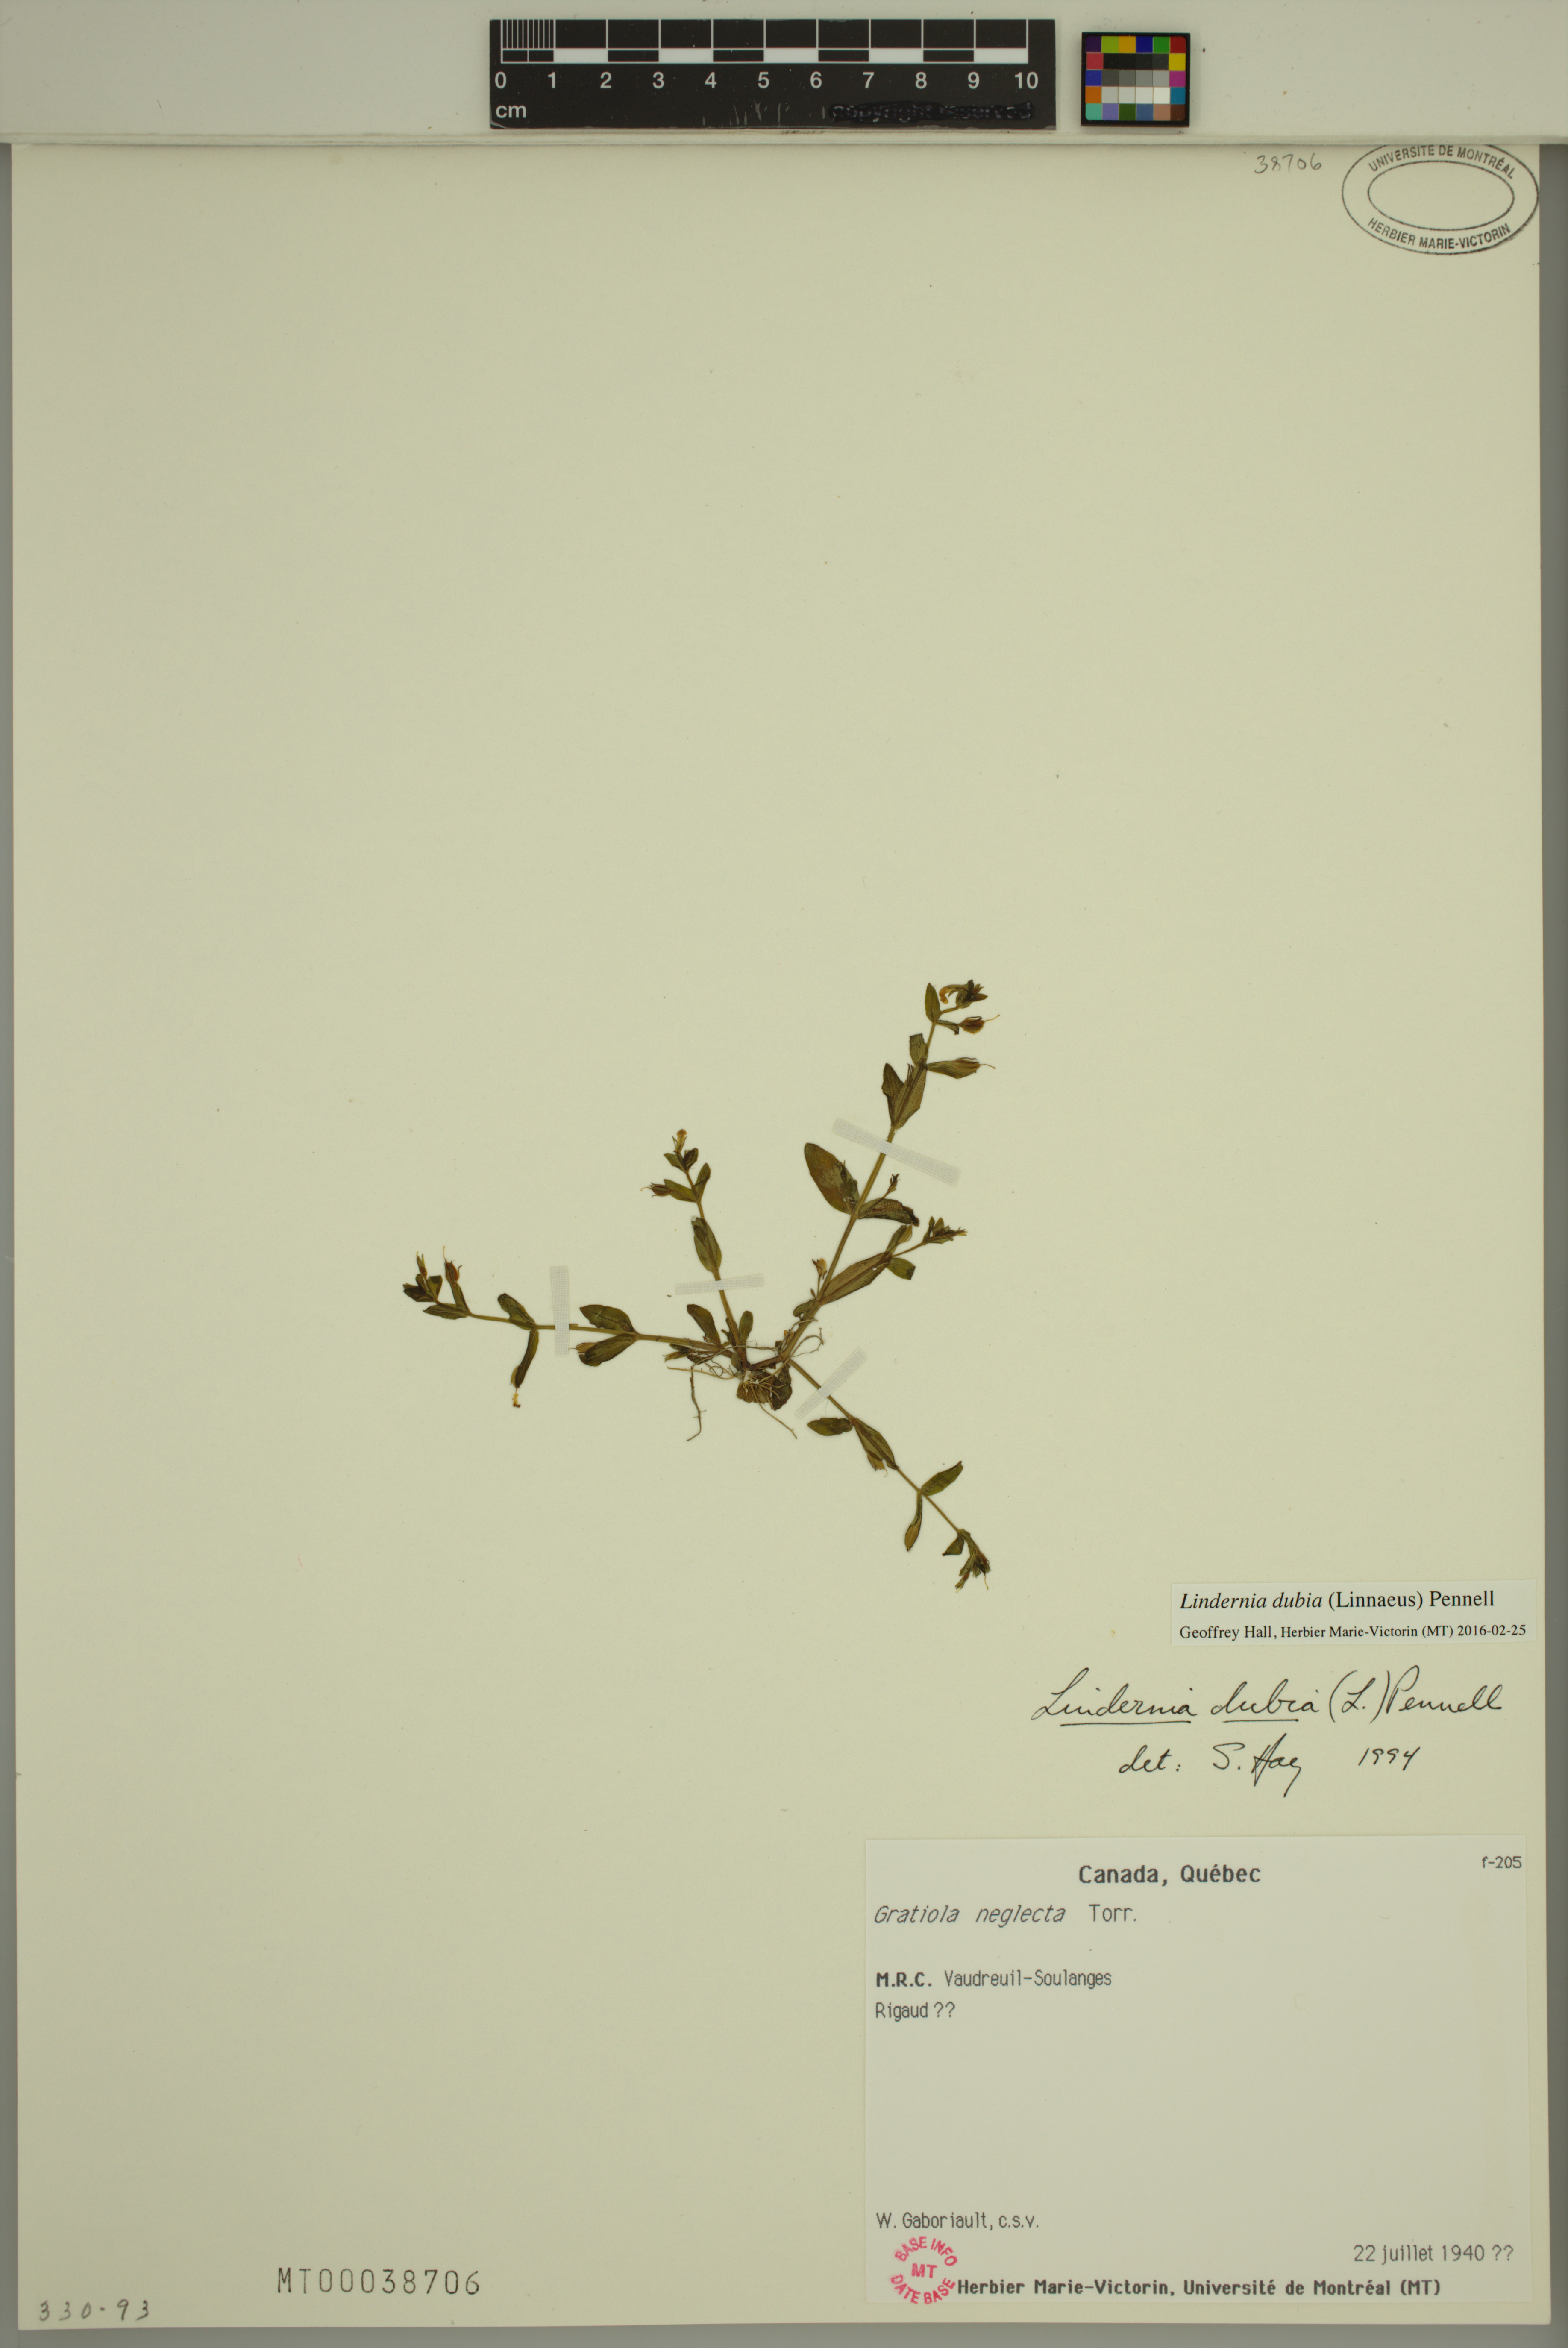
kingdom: Plantae
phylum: Tracheophyta
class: Magnoliopsida
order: Lamiales
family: Linderniaceae
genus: Lindernia
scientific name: Lindernia dubia
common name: Annual false pimpernel
